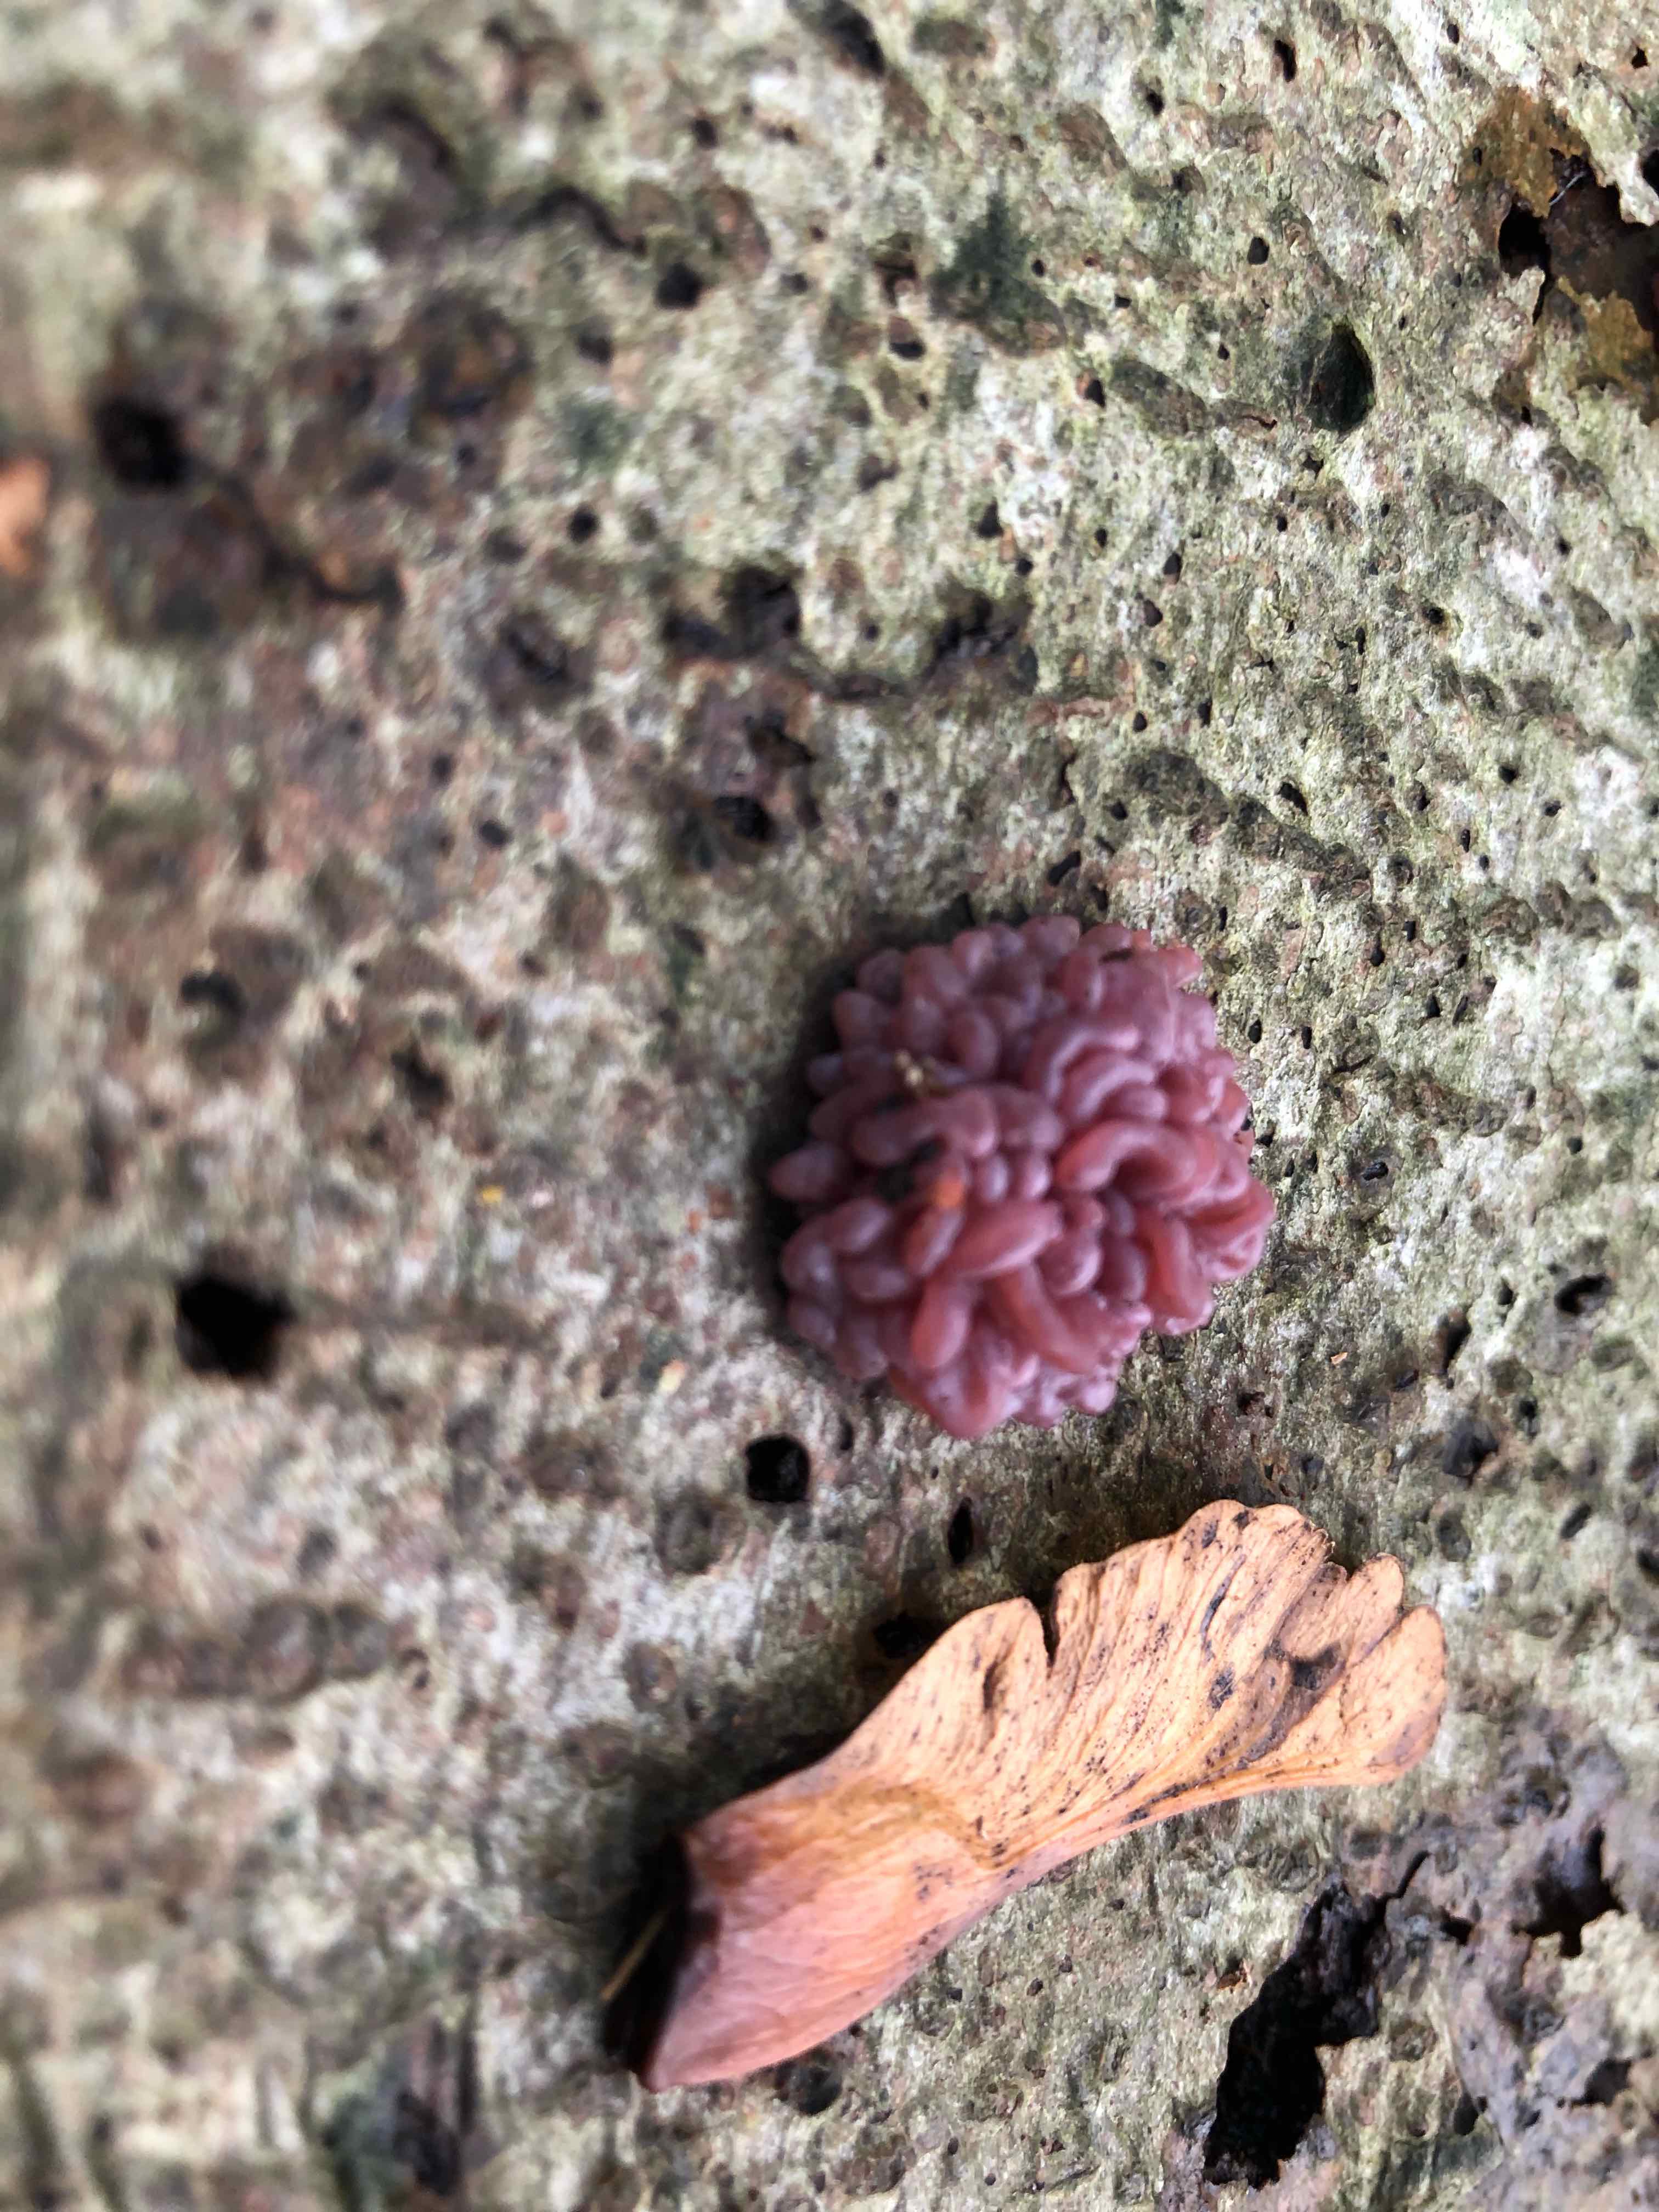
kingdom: Fungi
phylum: Ascomycota
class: Leotiomycetes
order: Helotiales
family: Gelatinodiscaceae
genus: Ascocoryne
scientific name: Ascocoryne sarcoides
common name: rødlilla sejskive
